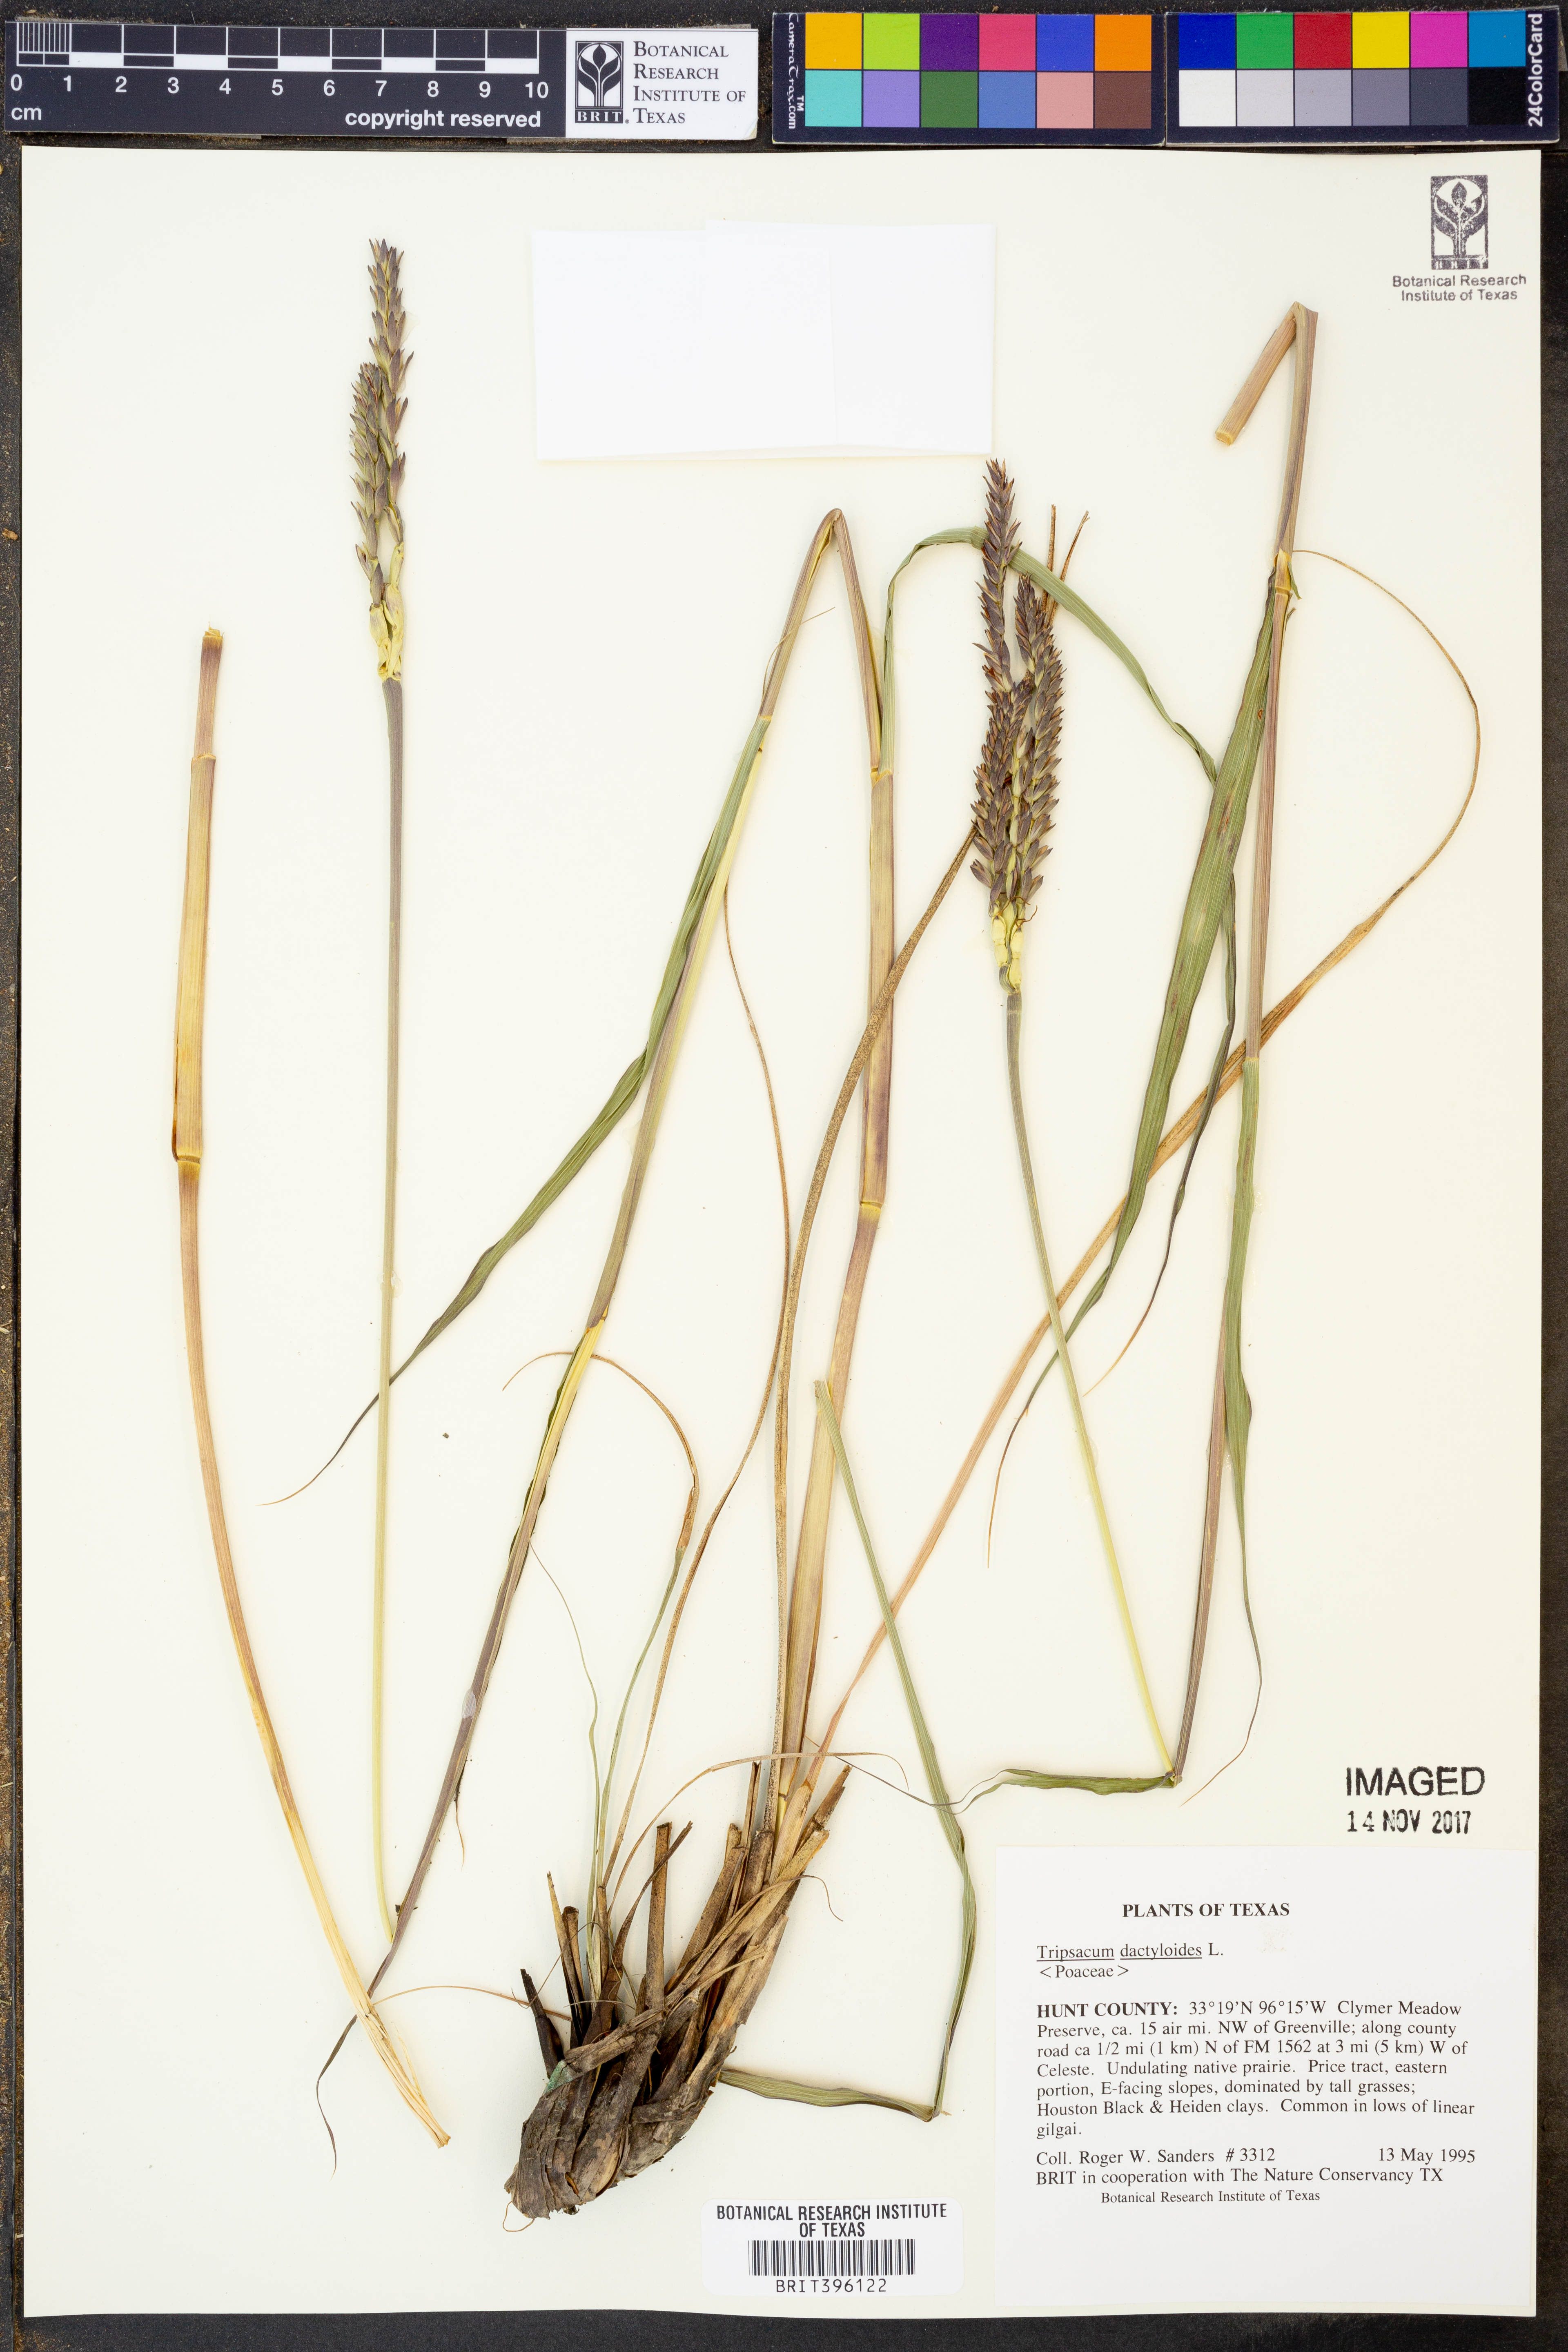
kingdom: Plantae
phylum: Tracheophyta
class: Liliopsida
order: Poales
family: Poaceae
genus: Tripsacum
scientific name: Tripsacum dactyloides
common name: Buffalo-grass
